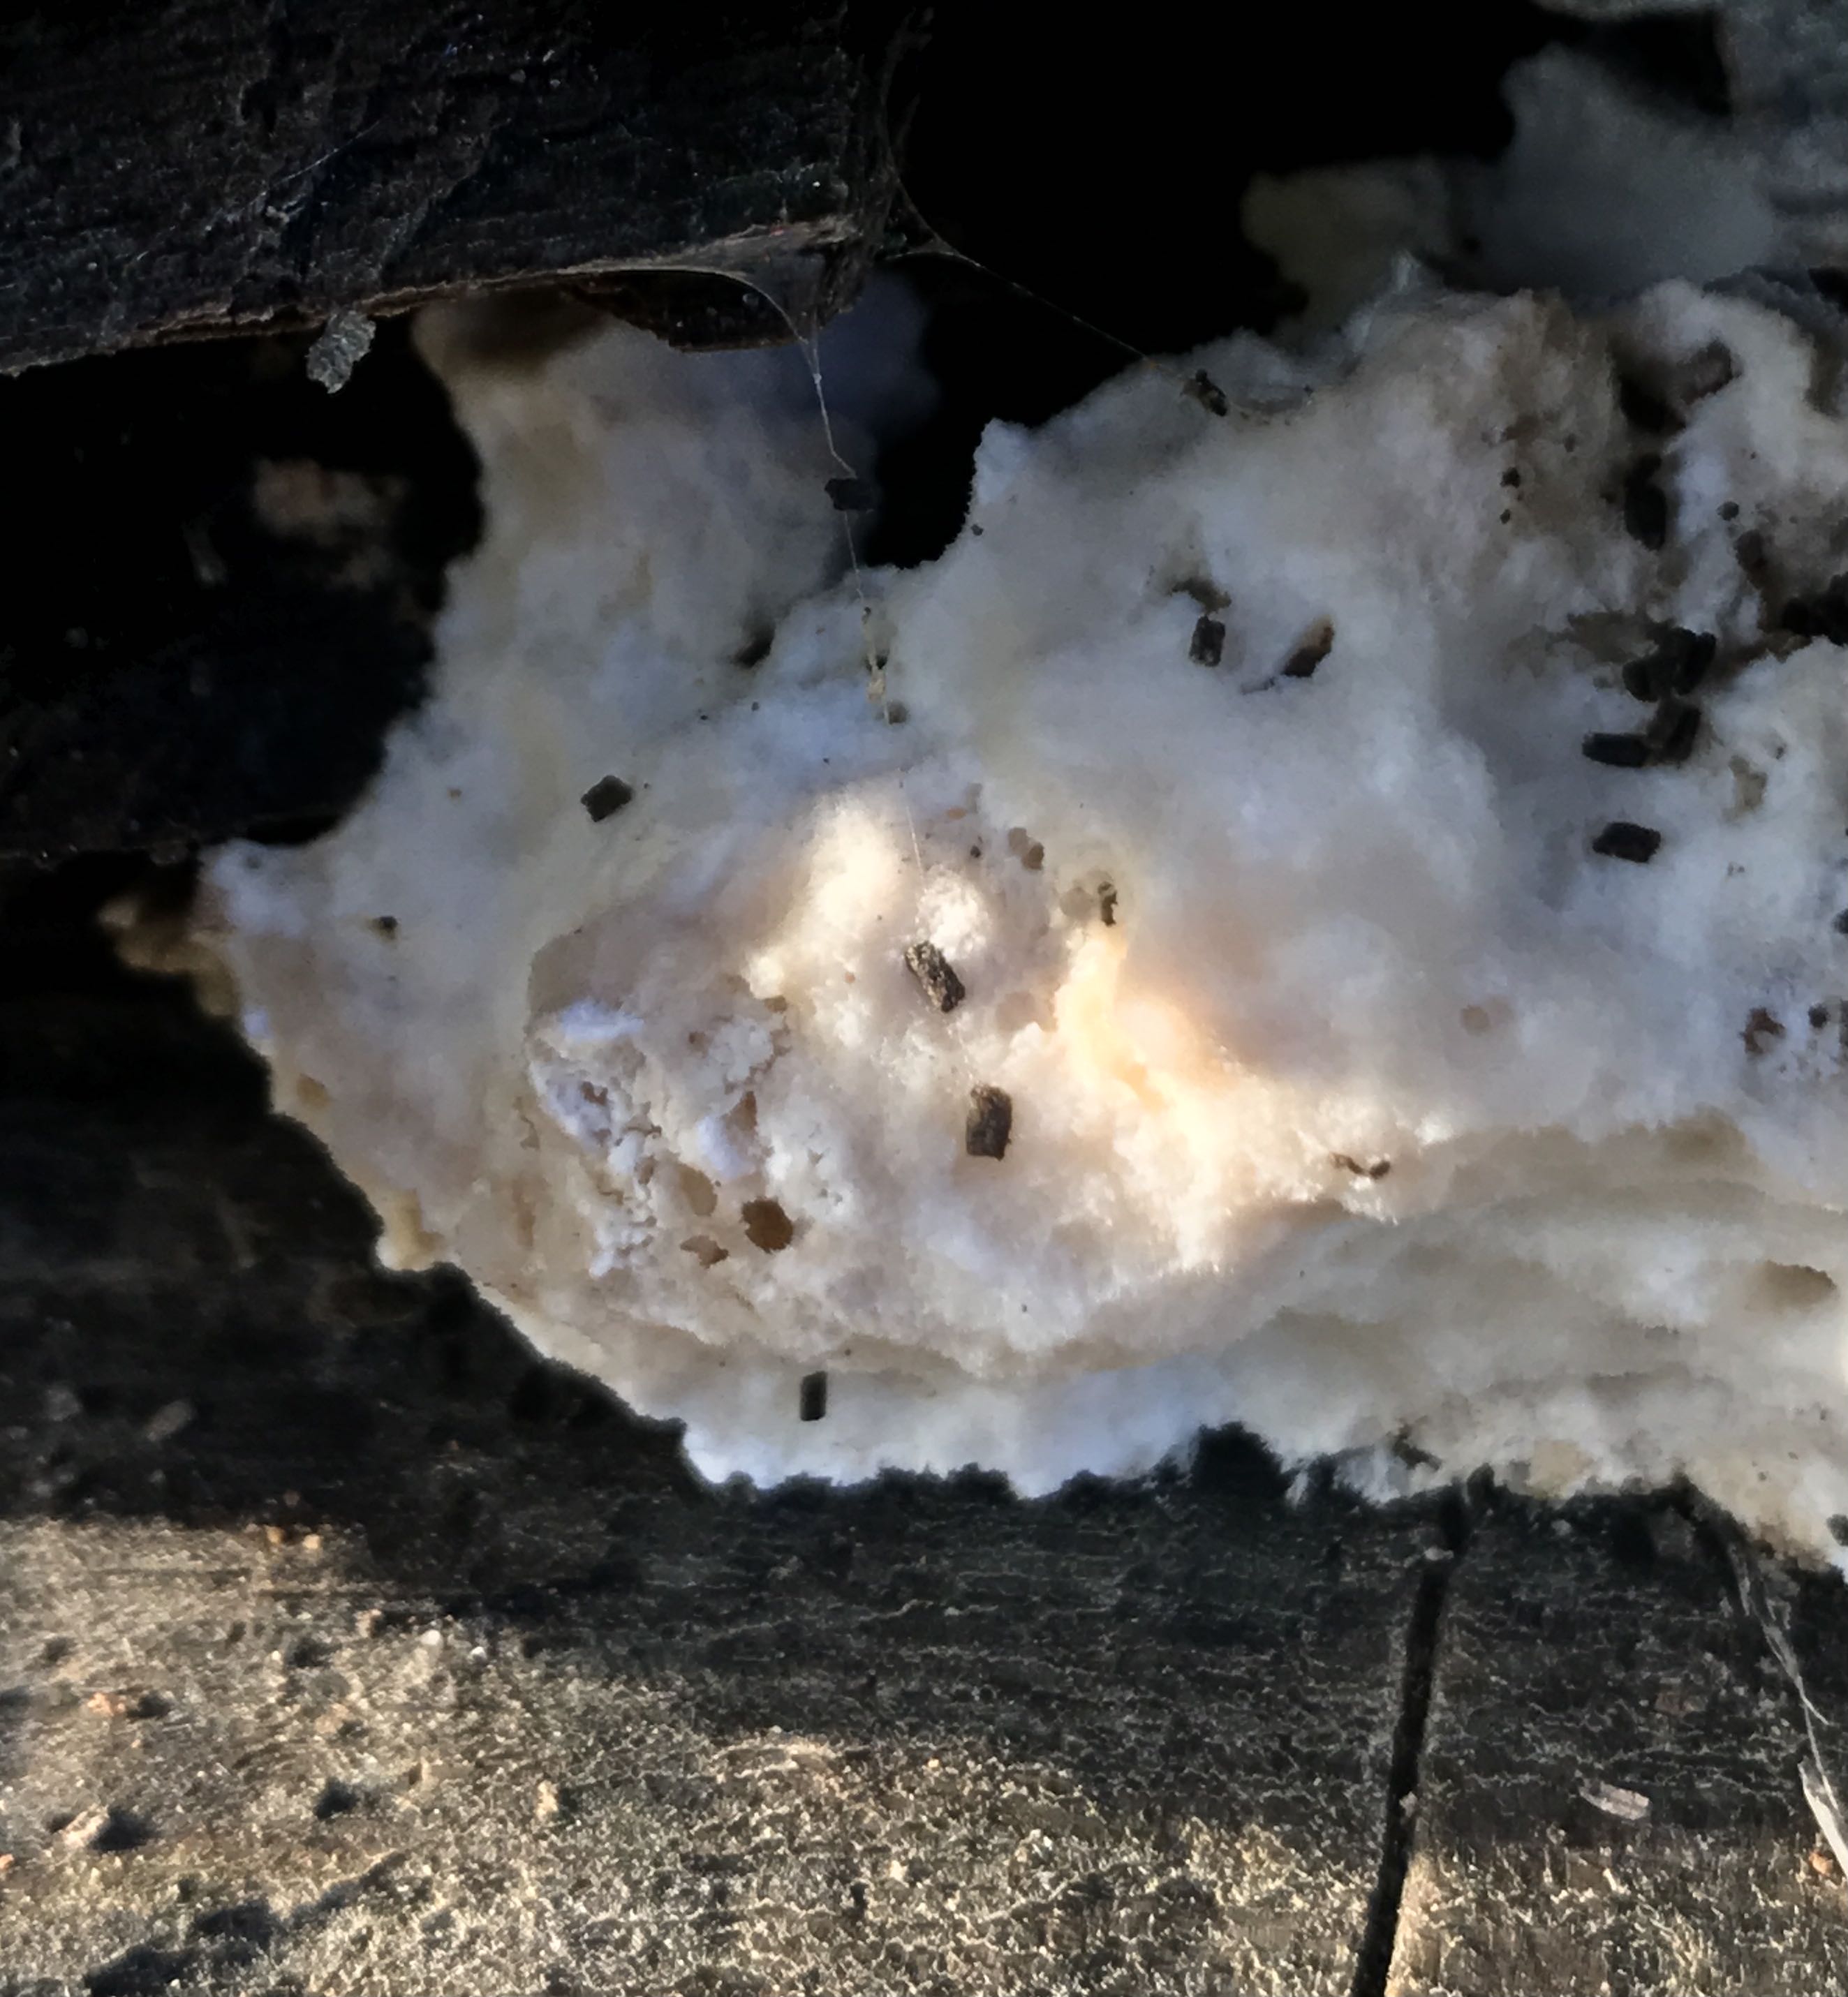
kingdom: Fungi
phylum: Basidiomycota
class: Agaricomycetes
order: Polyporales
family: Incrustoporiaceae
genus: Tyromyces
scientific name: Tyromyces lacteus
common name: mælkehvid kødporesvamp
